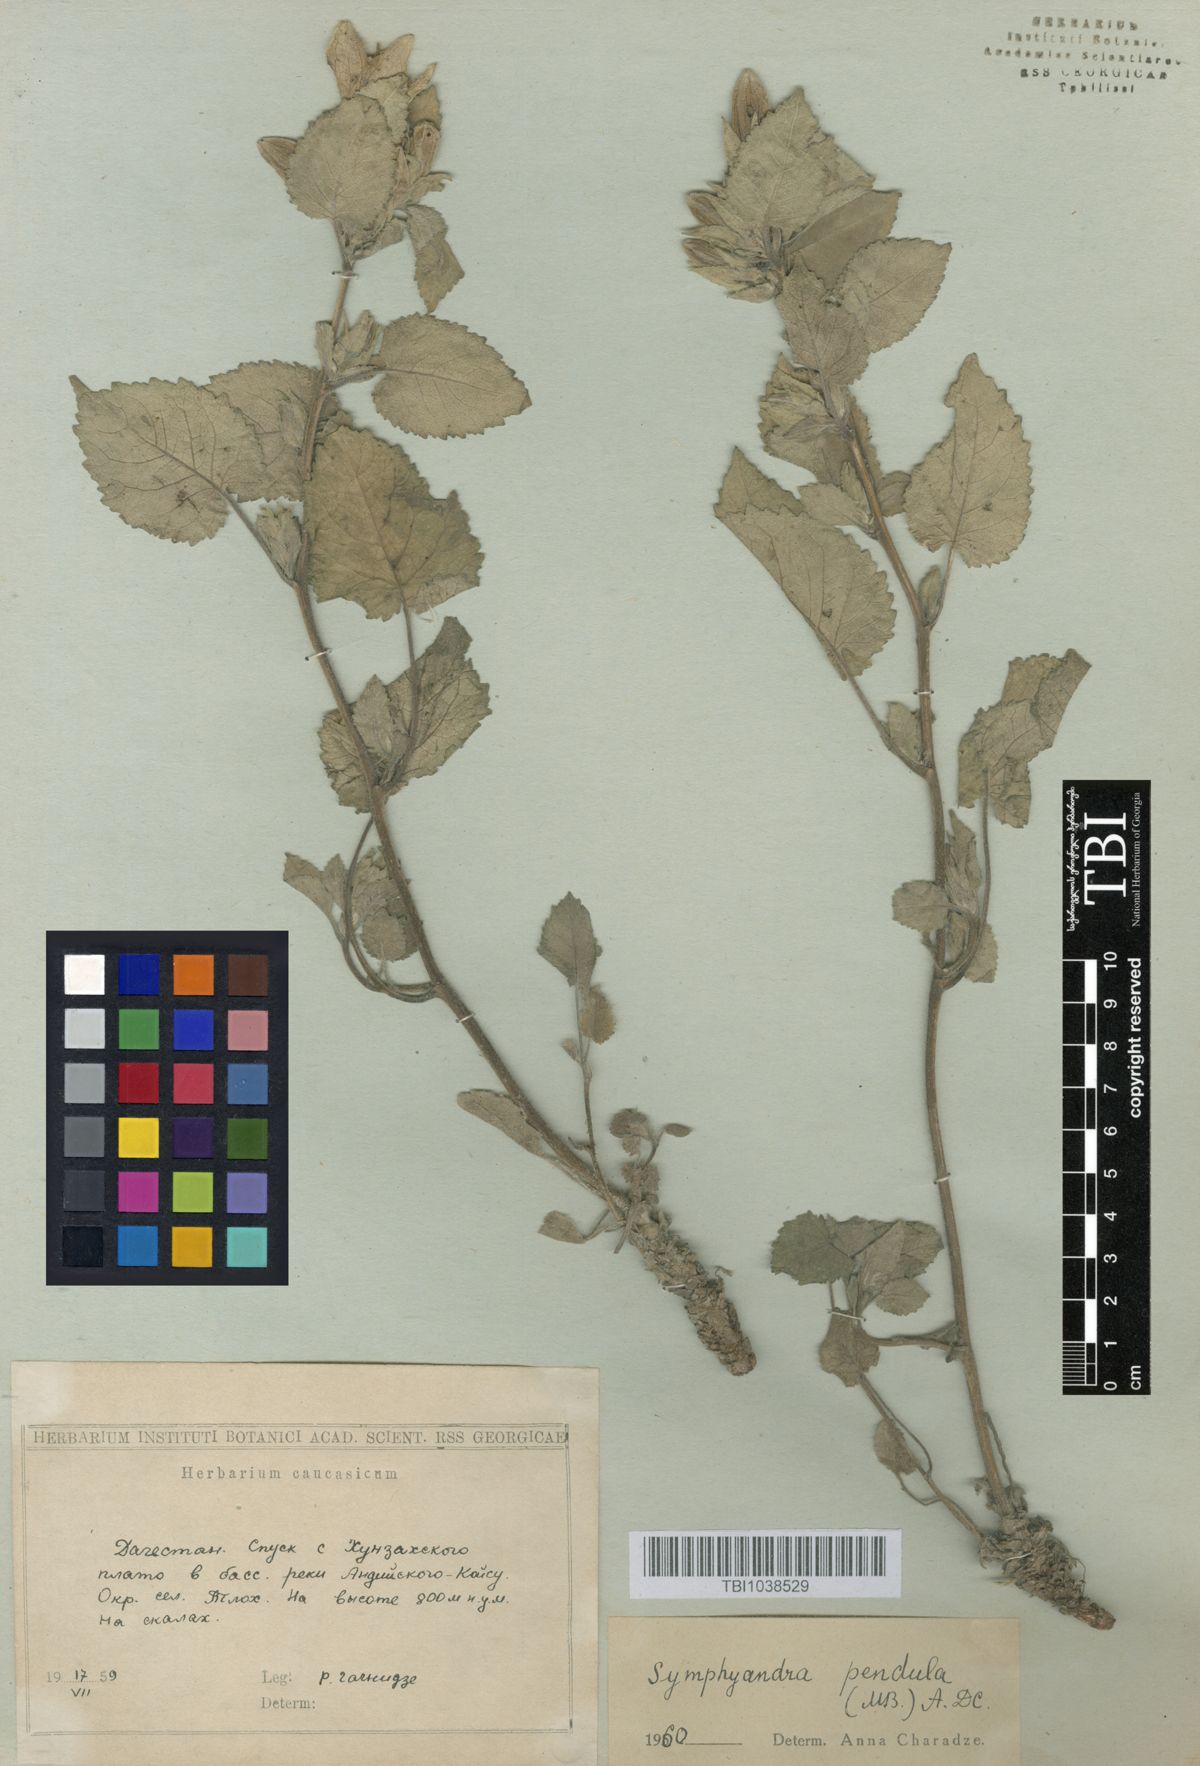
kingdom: Plantae
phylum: Tracheophyta
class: Magnoliopsida
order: Asterales
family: Campanulaceae
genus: Campanula
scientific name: Campanula pendula
